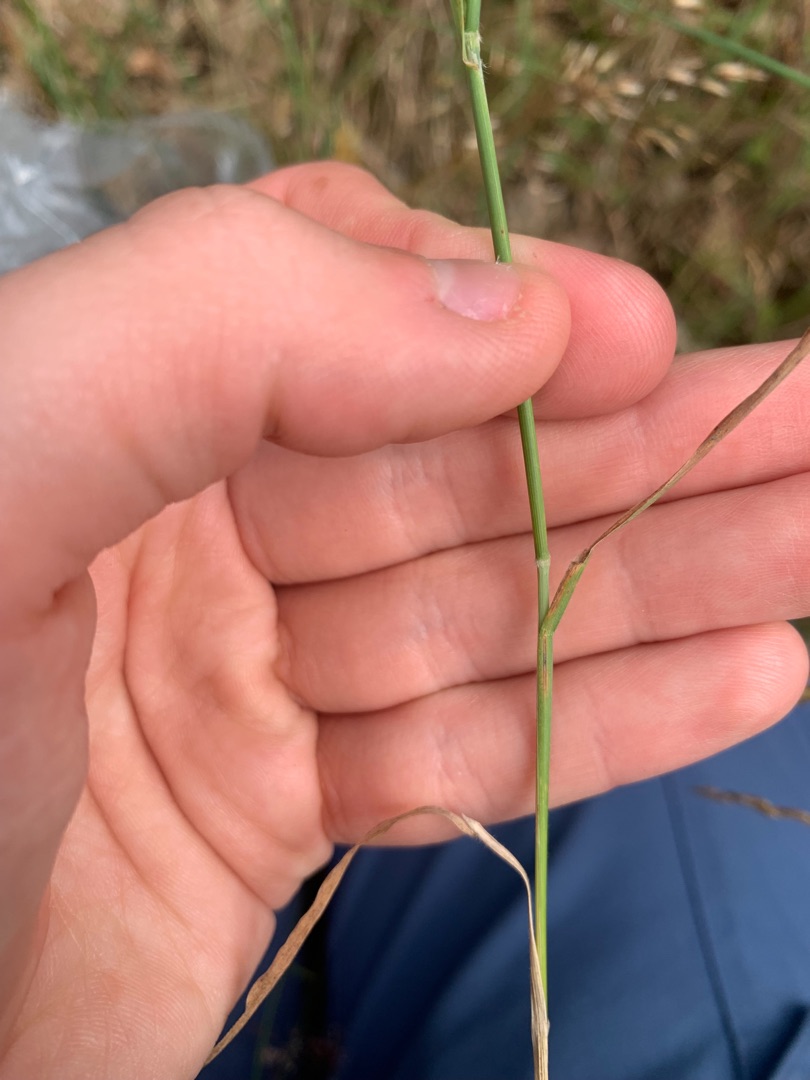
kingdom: Plantae
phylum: Tracheophyta
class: Liliopsida
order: Poales
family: Poaceae
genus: Holcus
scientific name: Holcus mollis
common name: Krybende hestegræs
